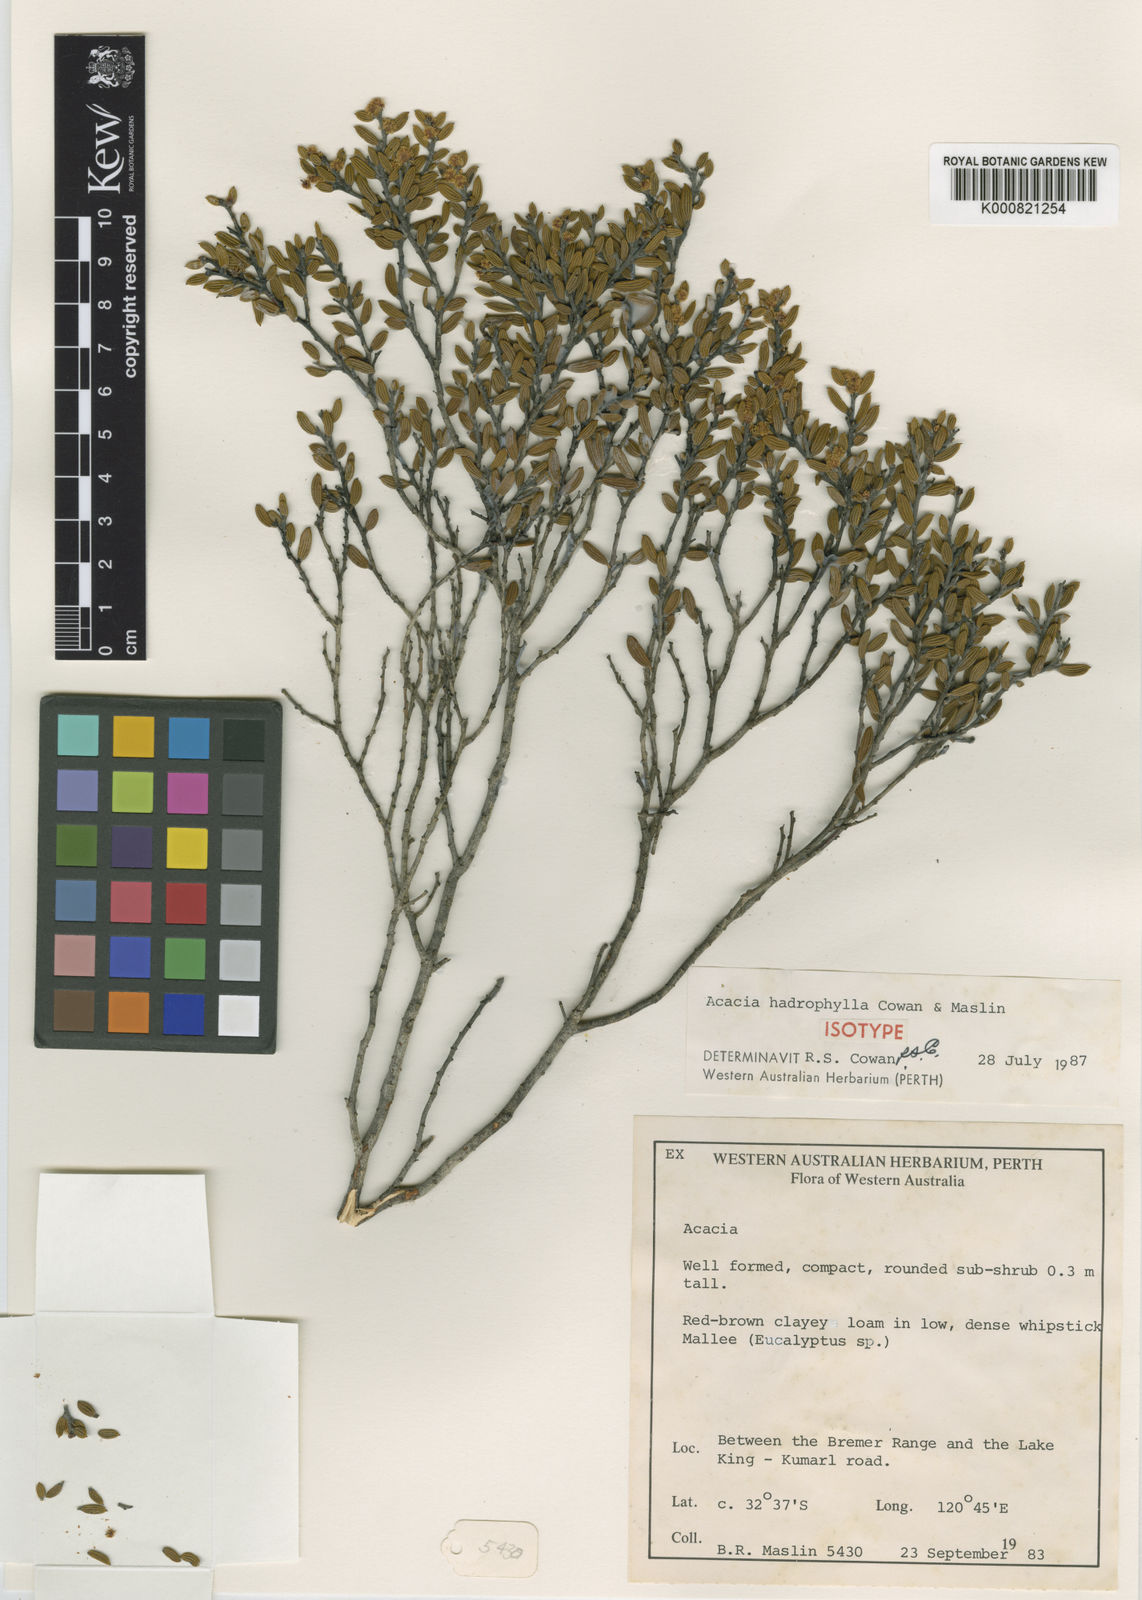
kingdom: Plantae
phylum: Tracheophyta
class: Magnoliopsida
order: Fabales
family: Fabaceae
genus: Acacia
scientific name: Acacia hadrophylla
